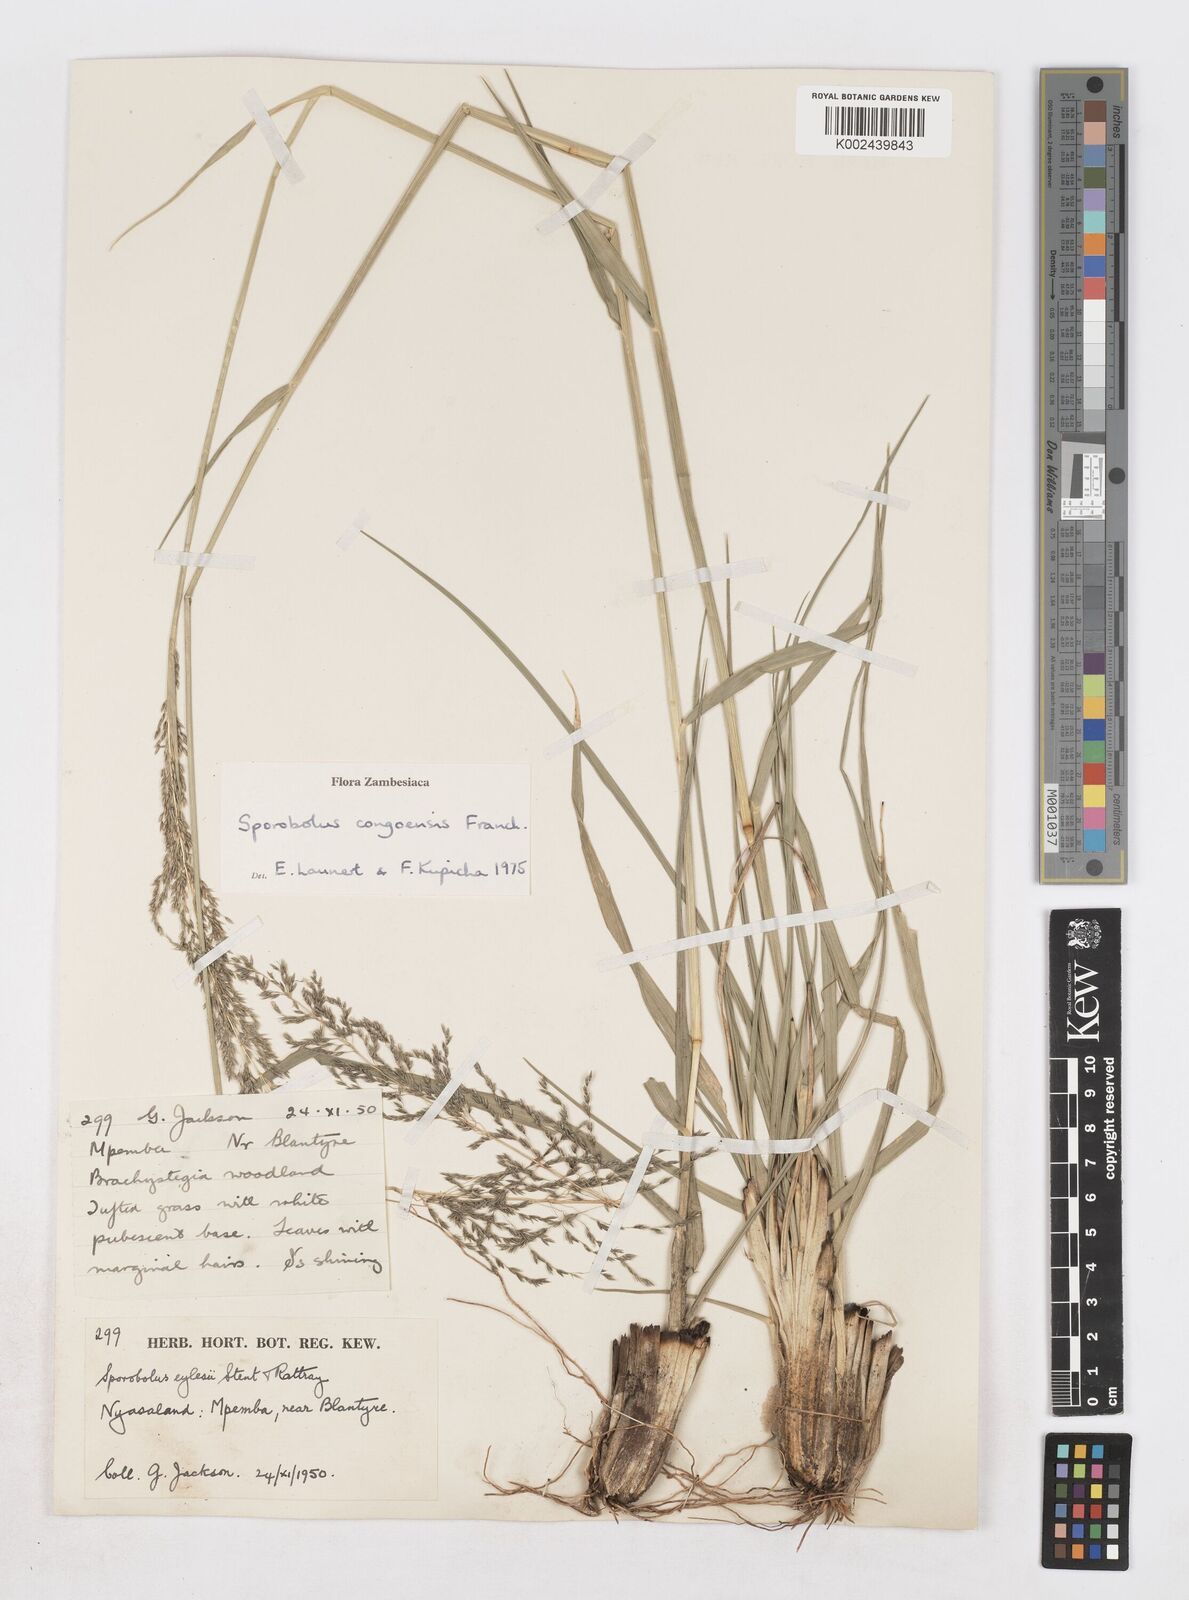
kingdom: Plantae
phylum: Tracheophyta
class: Liliopsida
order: Poales
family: Poaceae
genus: Sporobolus
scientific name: Sporobolus congoensis
